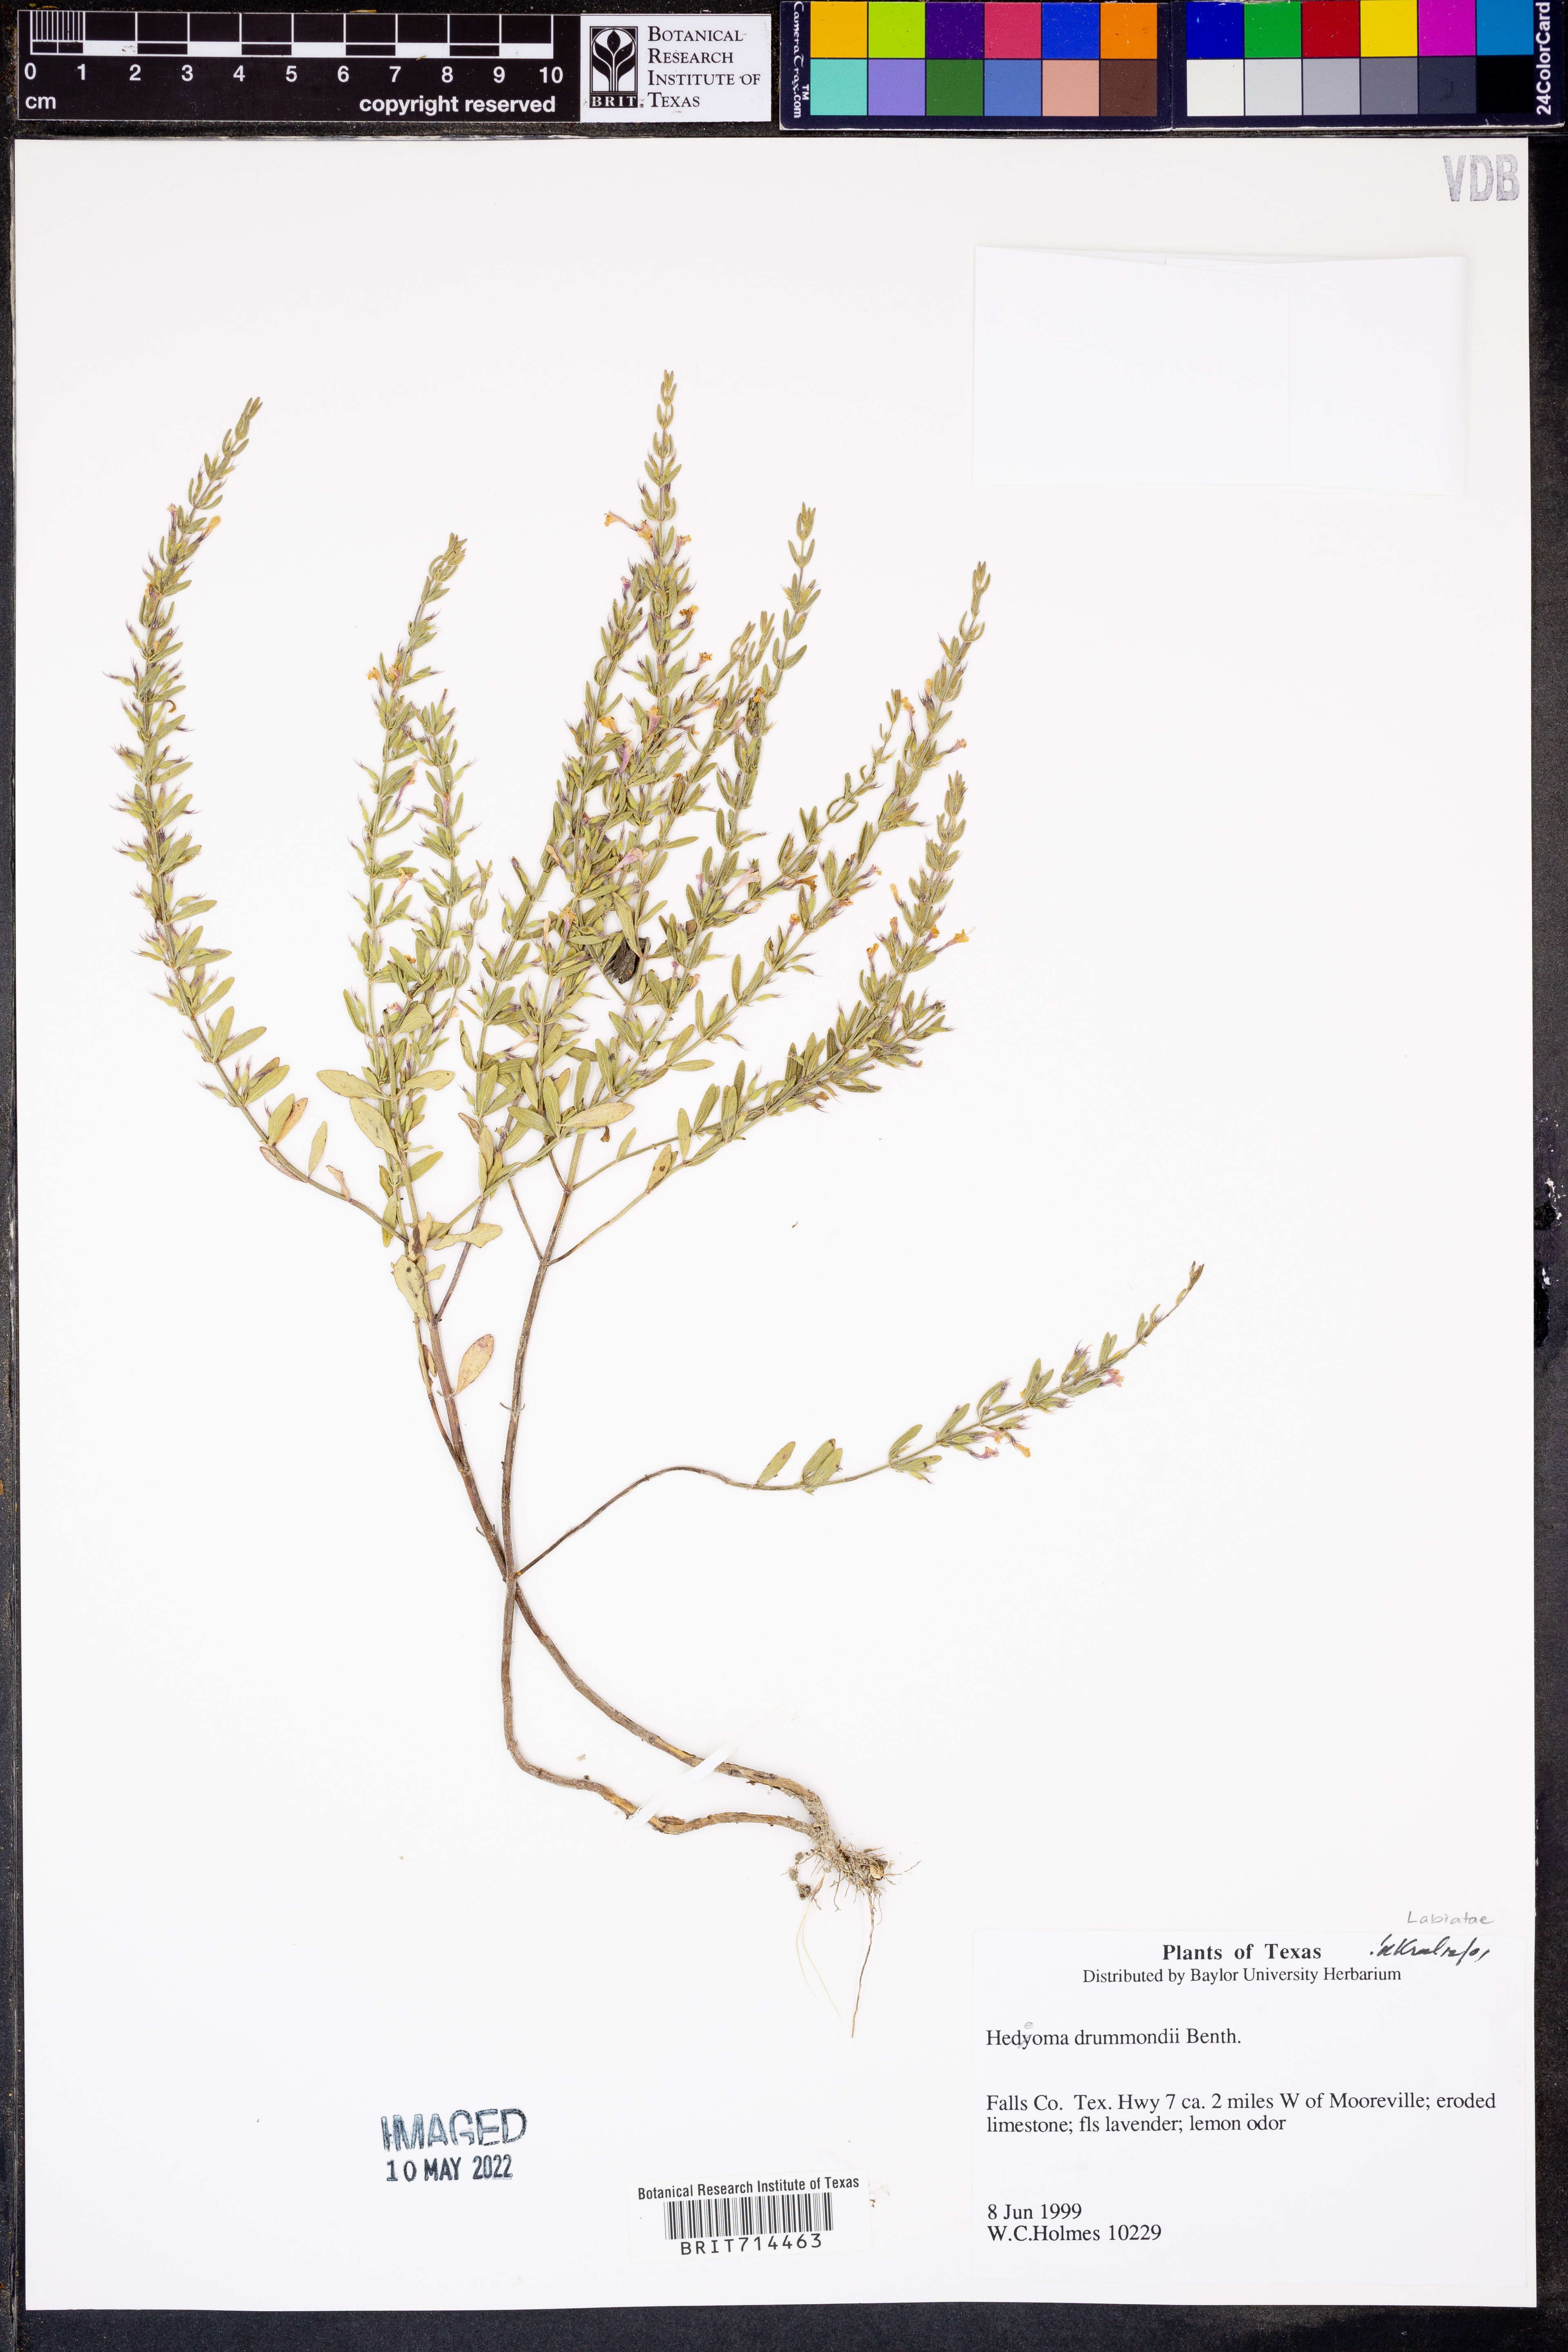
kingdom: Plantae
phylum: Tracheophyta
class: Magnoliopsida
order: Lamiales
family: Lamiaceae
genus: Hedeoma
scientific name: Hedeoma drummondii
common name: New mexico pennyroyal
